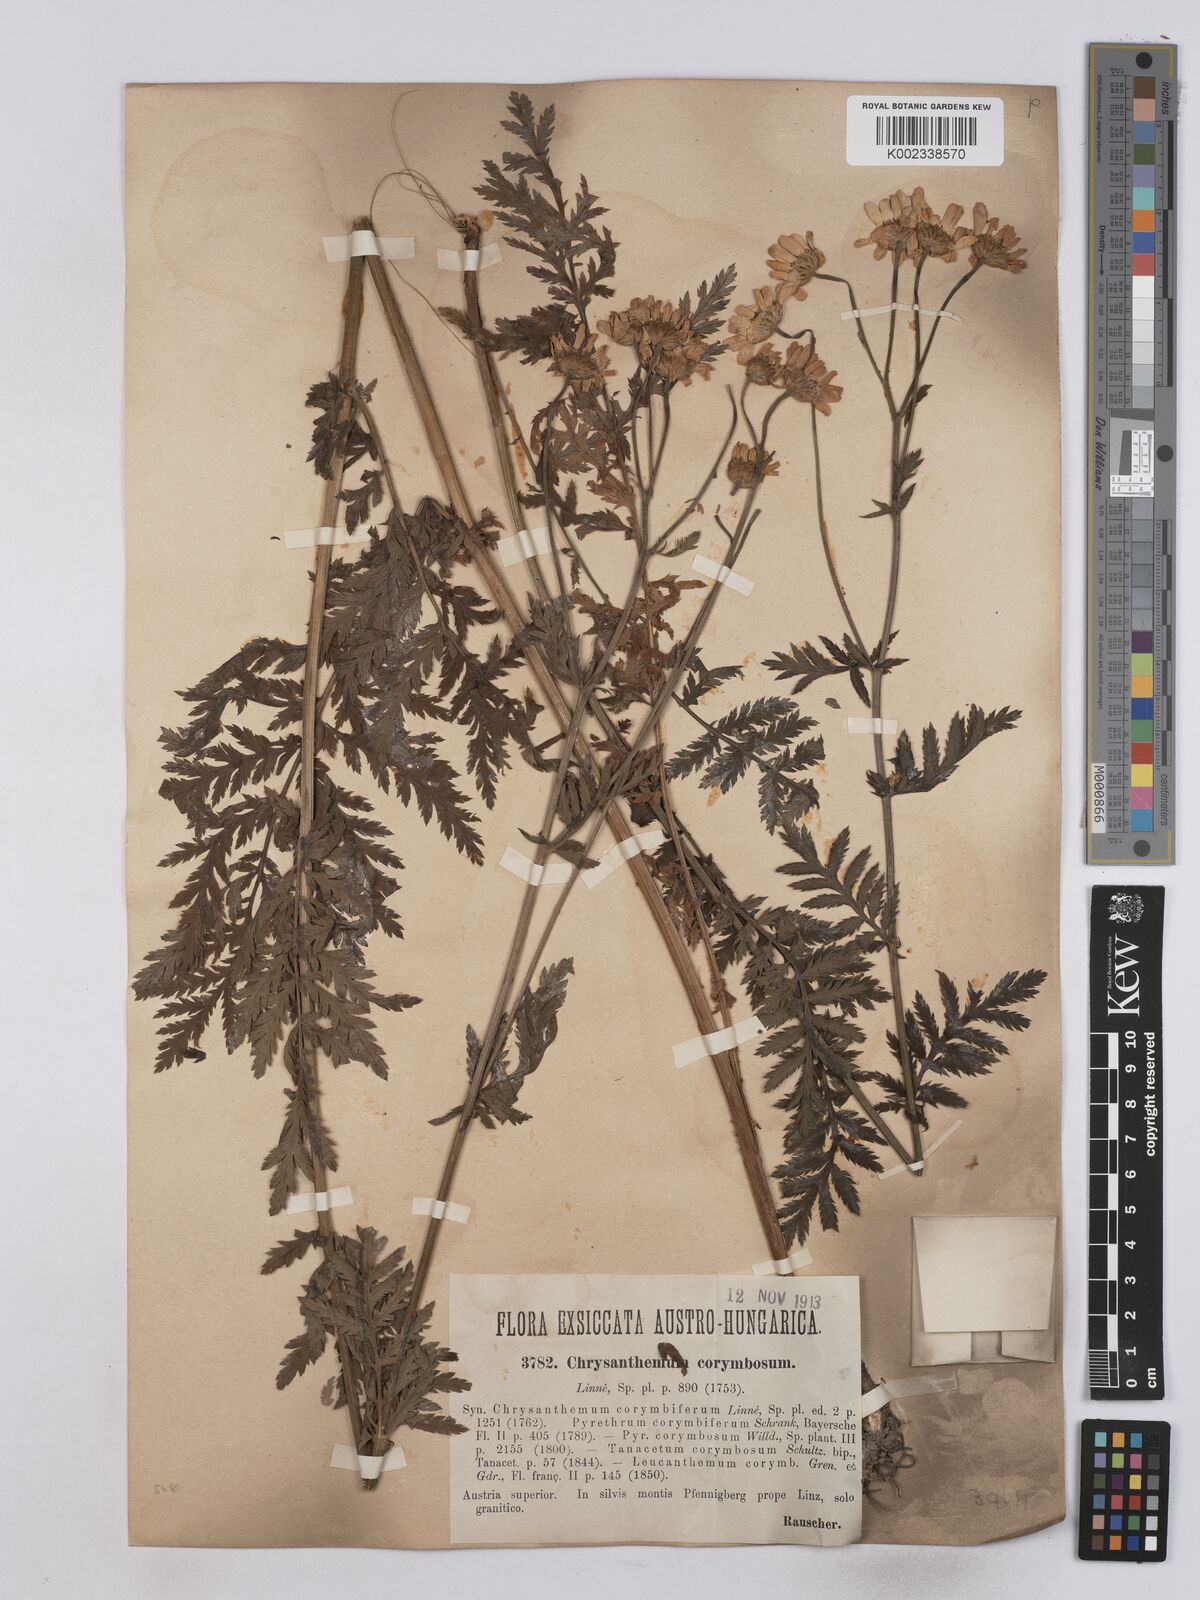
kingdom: Plantae
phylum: Tracheophyta
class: Magnoliopsida
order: Asterales
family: Asteraceae
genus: Tanacetum
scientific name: Tanacetum corymbosum
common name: Scentless feverfew
